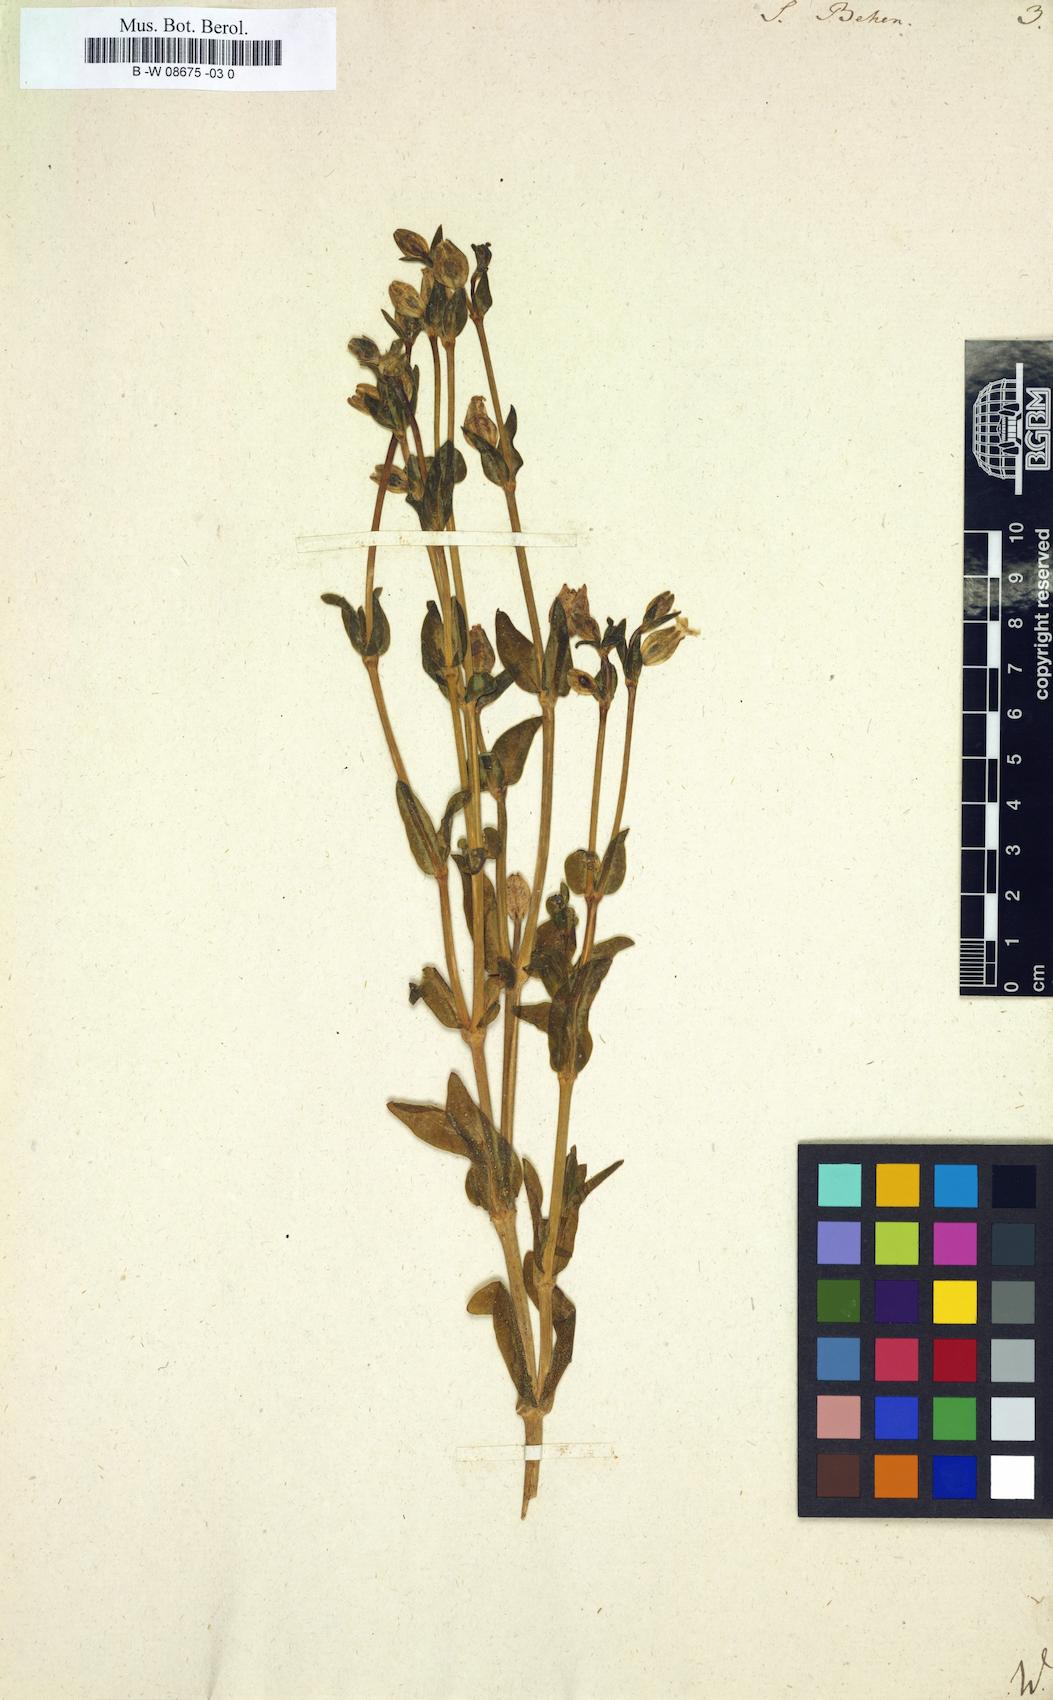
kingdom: Plantae
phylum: Tracheophyta
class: Magnoliopsida
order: Caryophyllales
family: Caryophyllaceae
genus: Silene
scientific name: Silene behen
